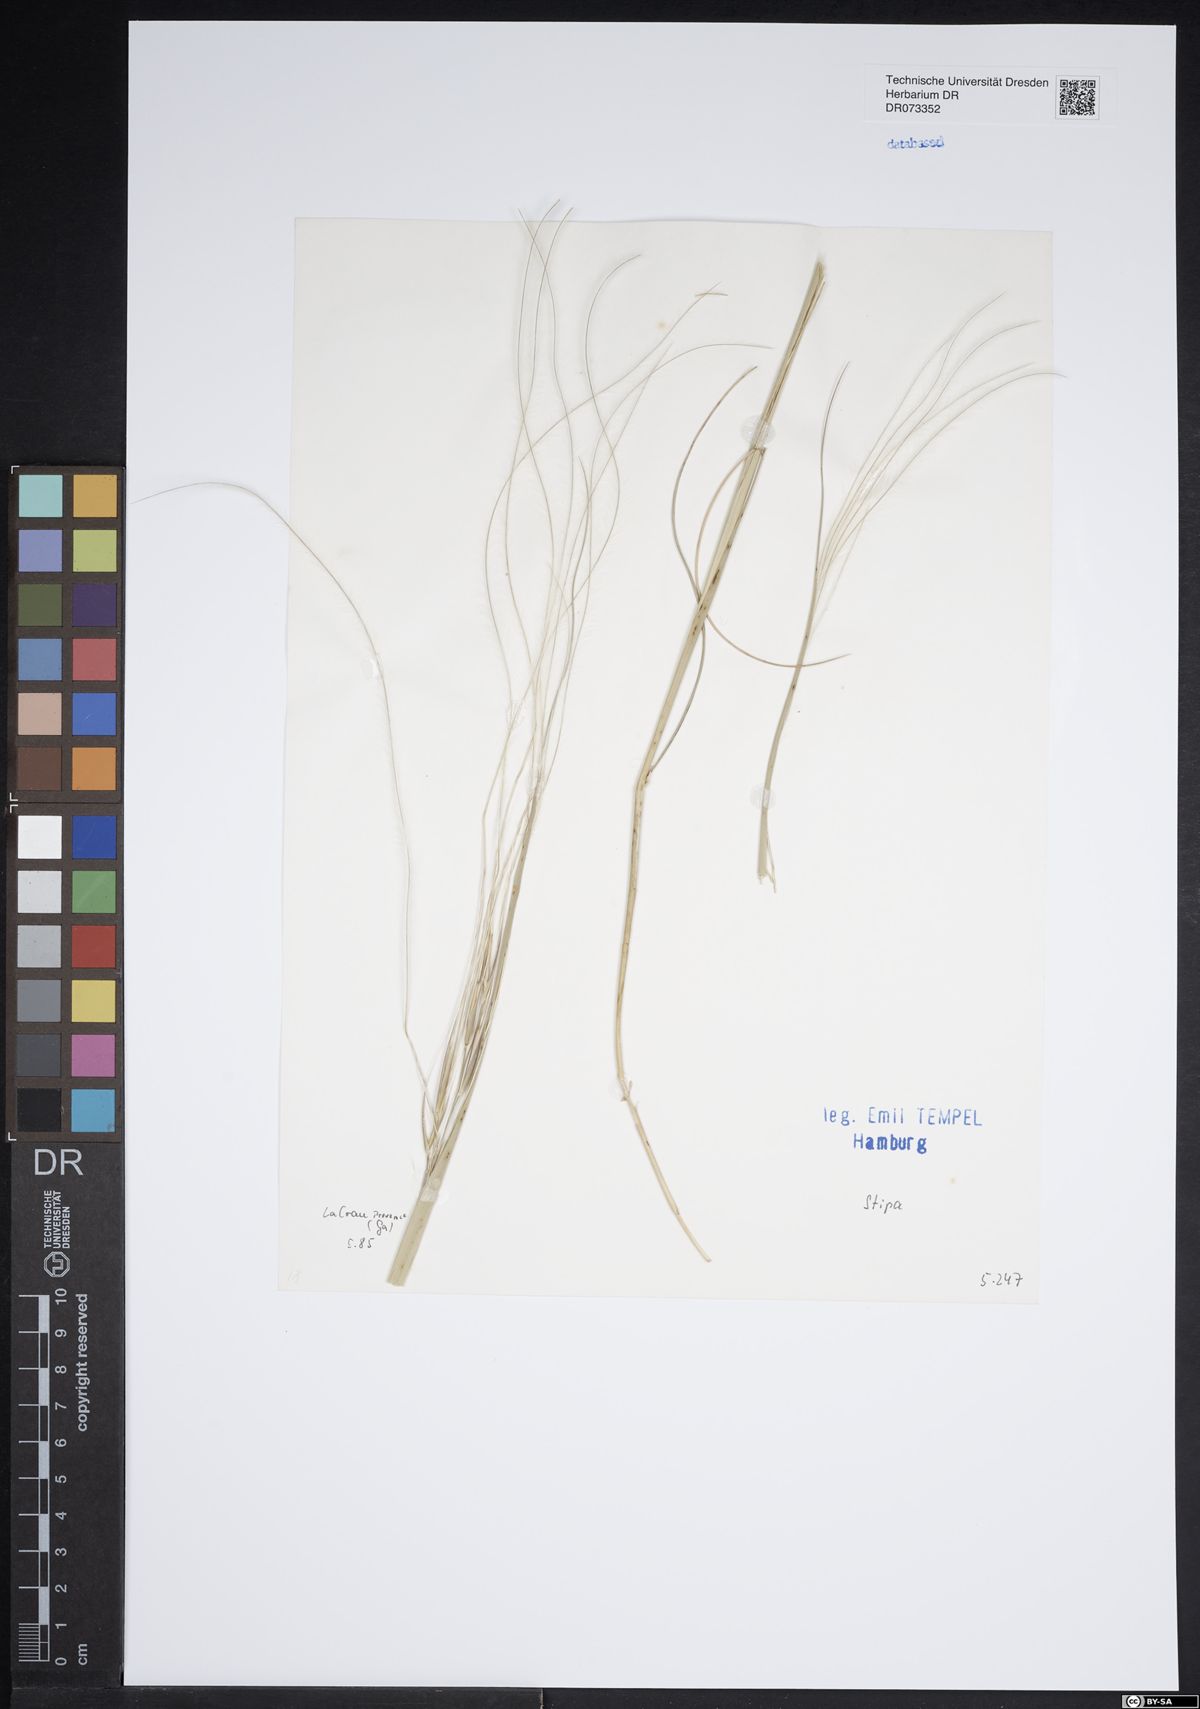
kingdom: Plantae
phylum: Tracheophyta
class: Liliopsida
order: Poales
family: Poaceae
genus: Stipa
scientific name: Stipa
